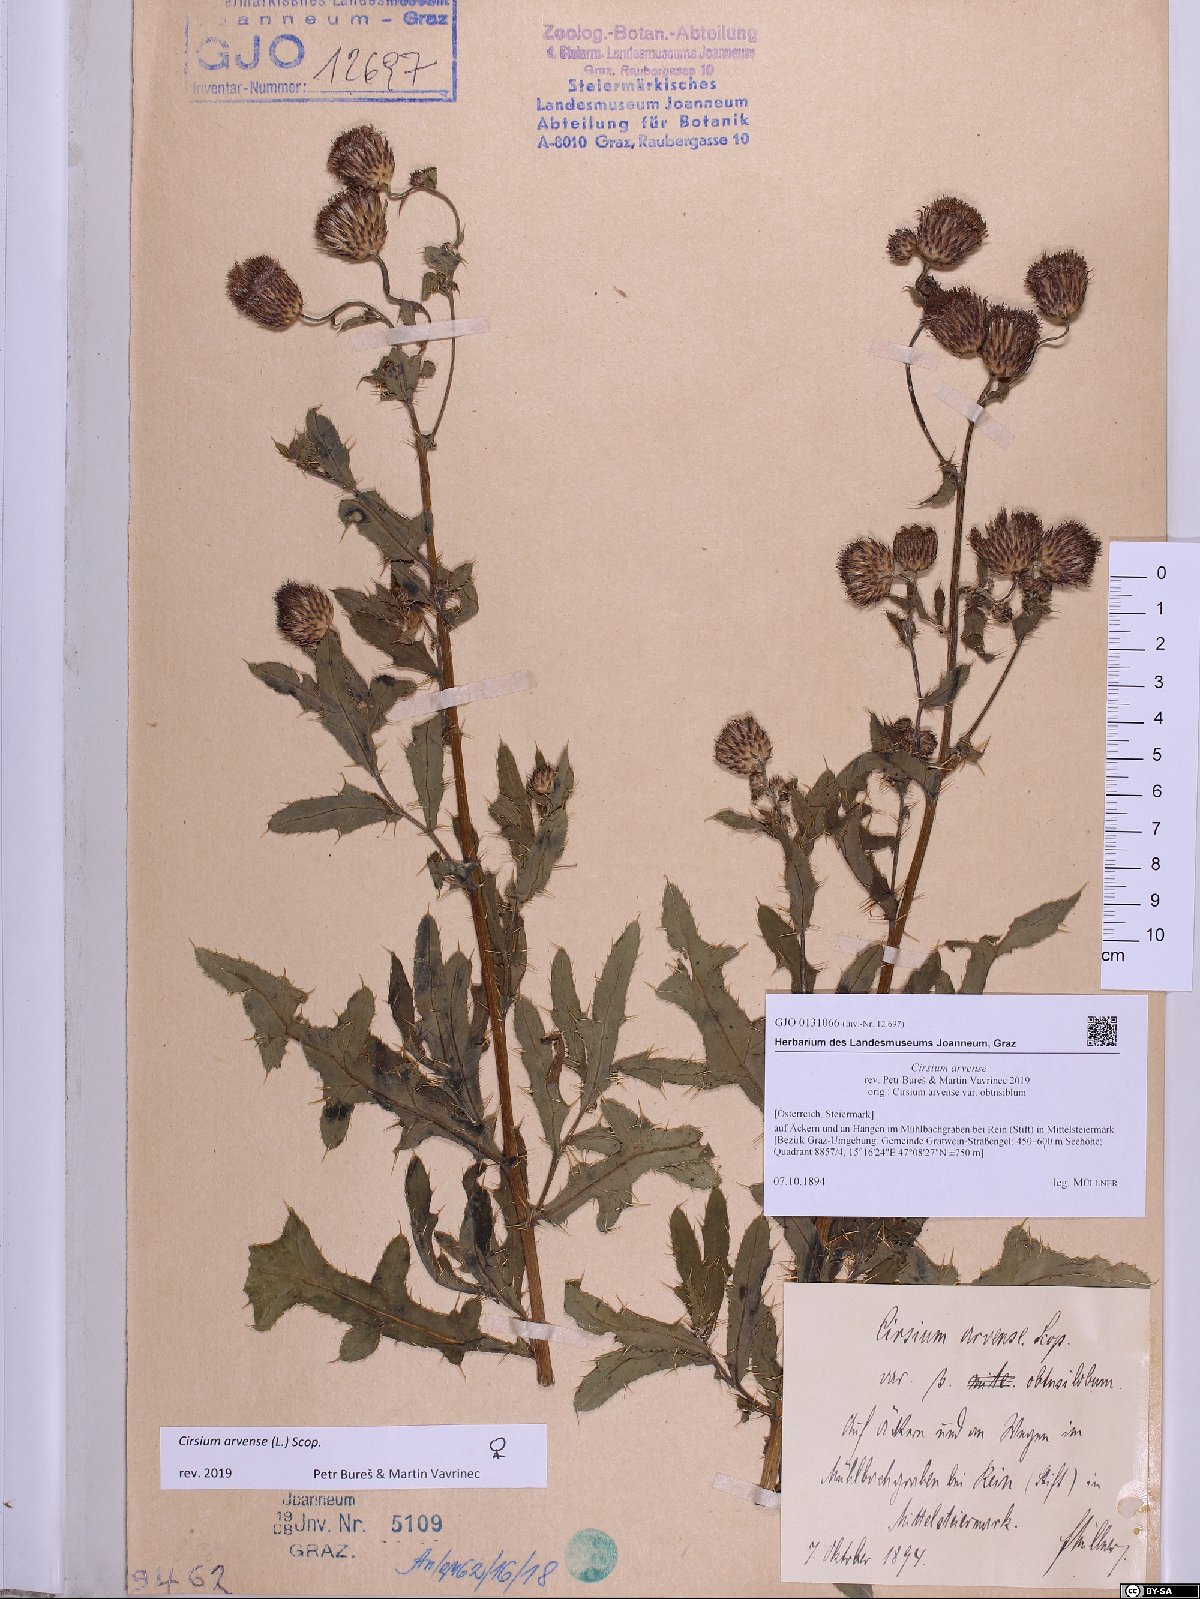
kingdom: Plantae
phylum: Tracheophyta
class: Magnoliopsida
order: Asterales
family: Asteraceae
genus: Cirsium
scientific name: Cirsium arvense
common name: Creeping thistle
